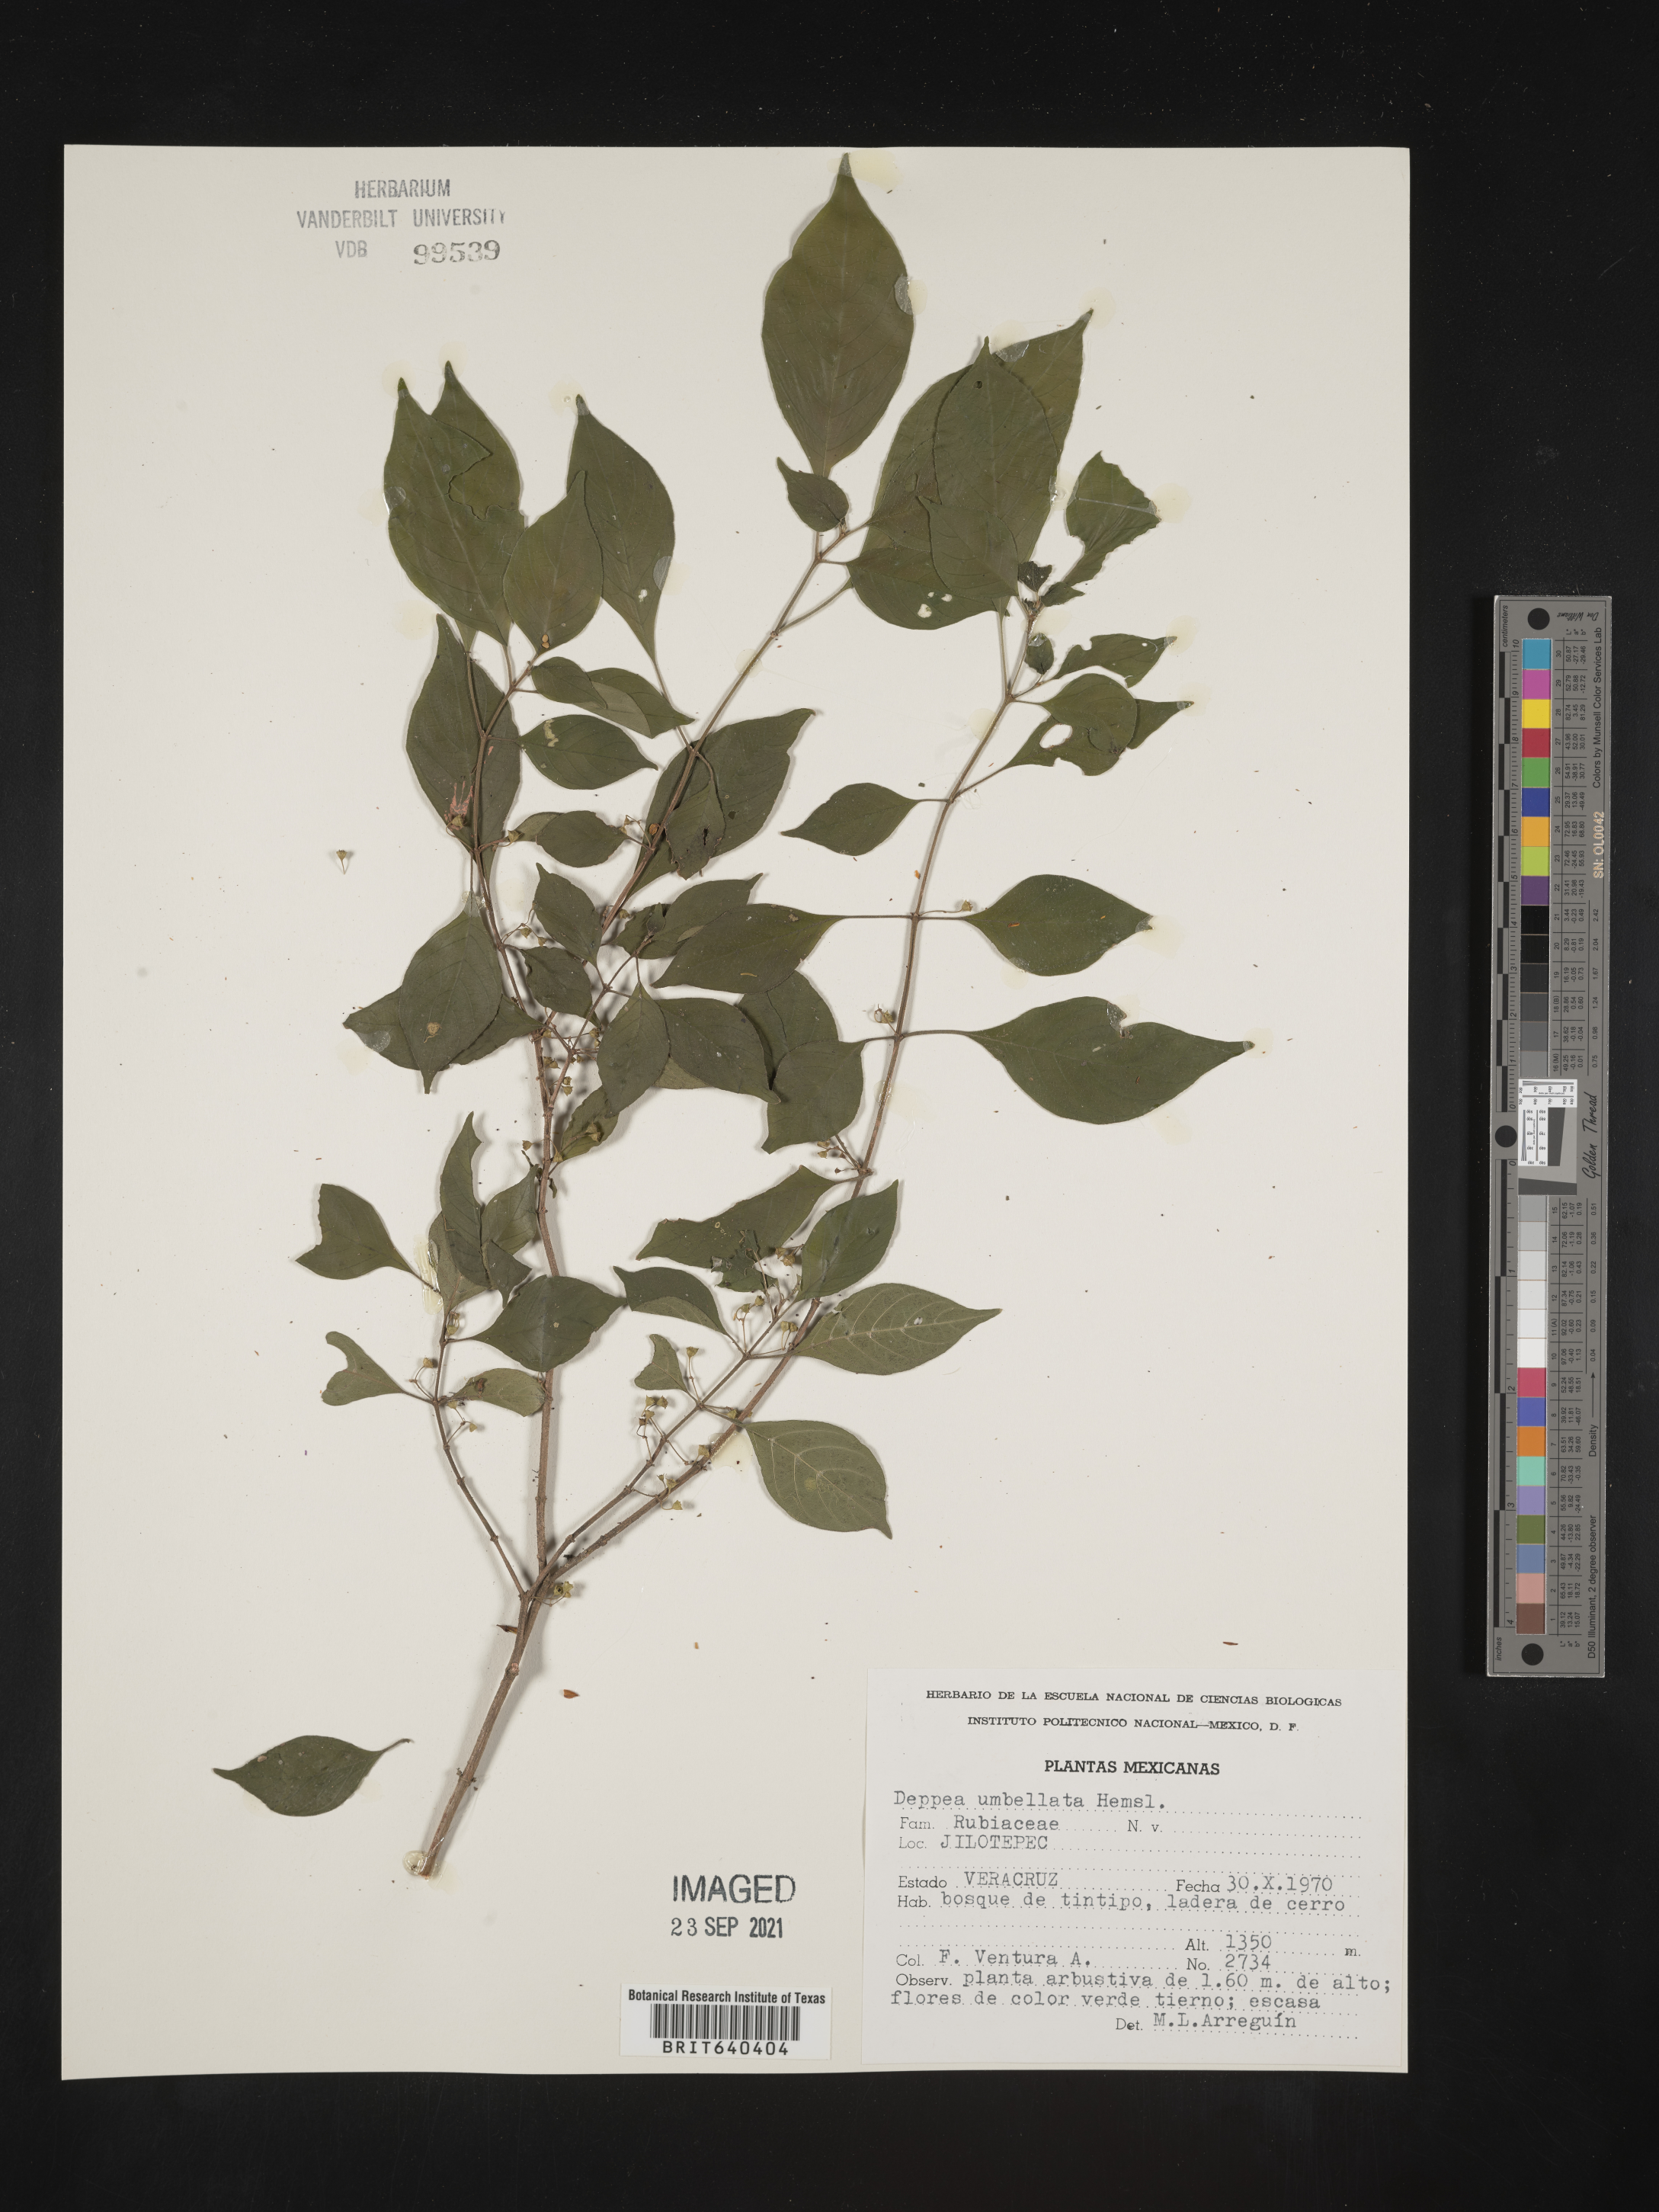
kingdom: Plantae
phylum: Tracheophyta
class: Magnoliopsida
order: Gentianales
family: Rubiaceae
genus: Deppea
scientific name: Deppea
